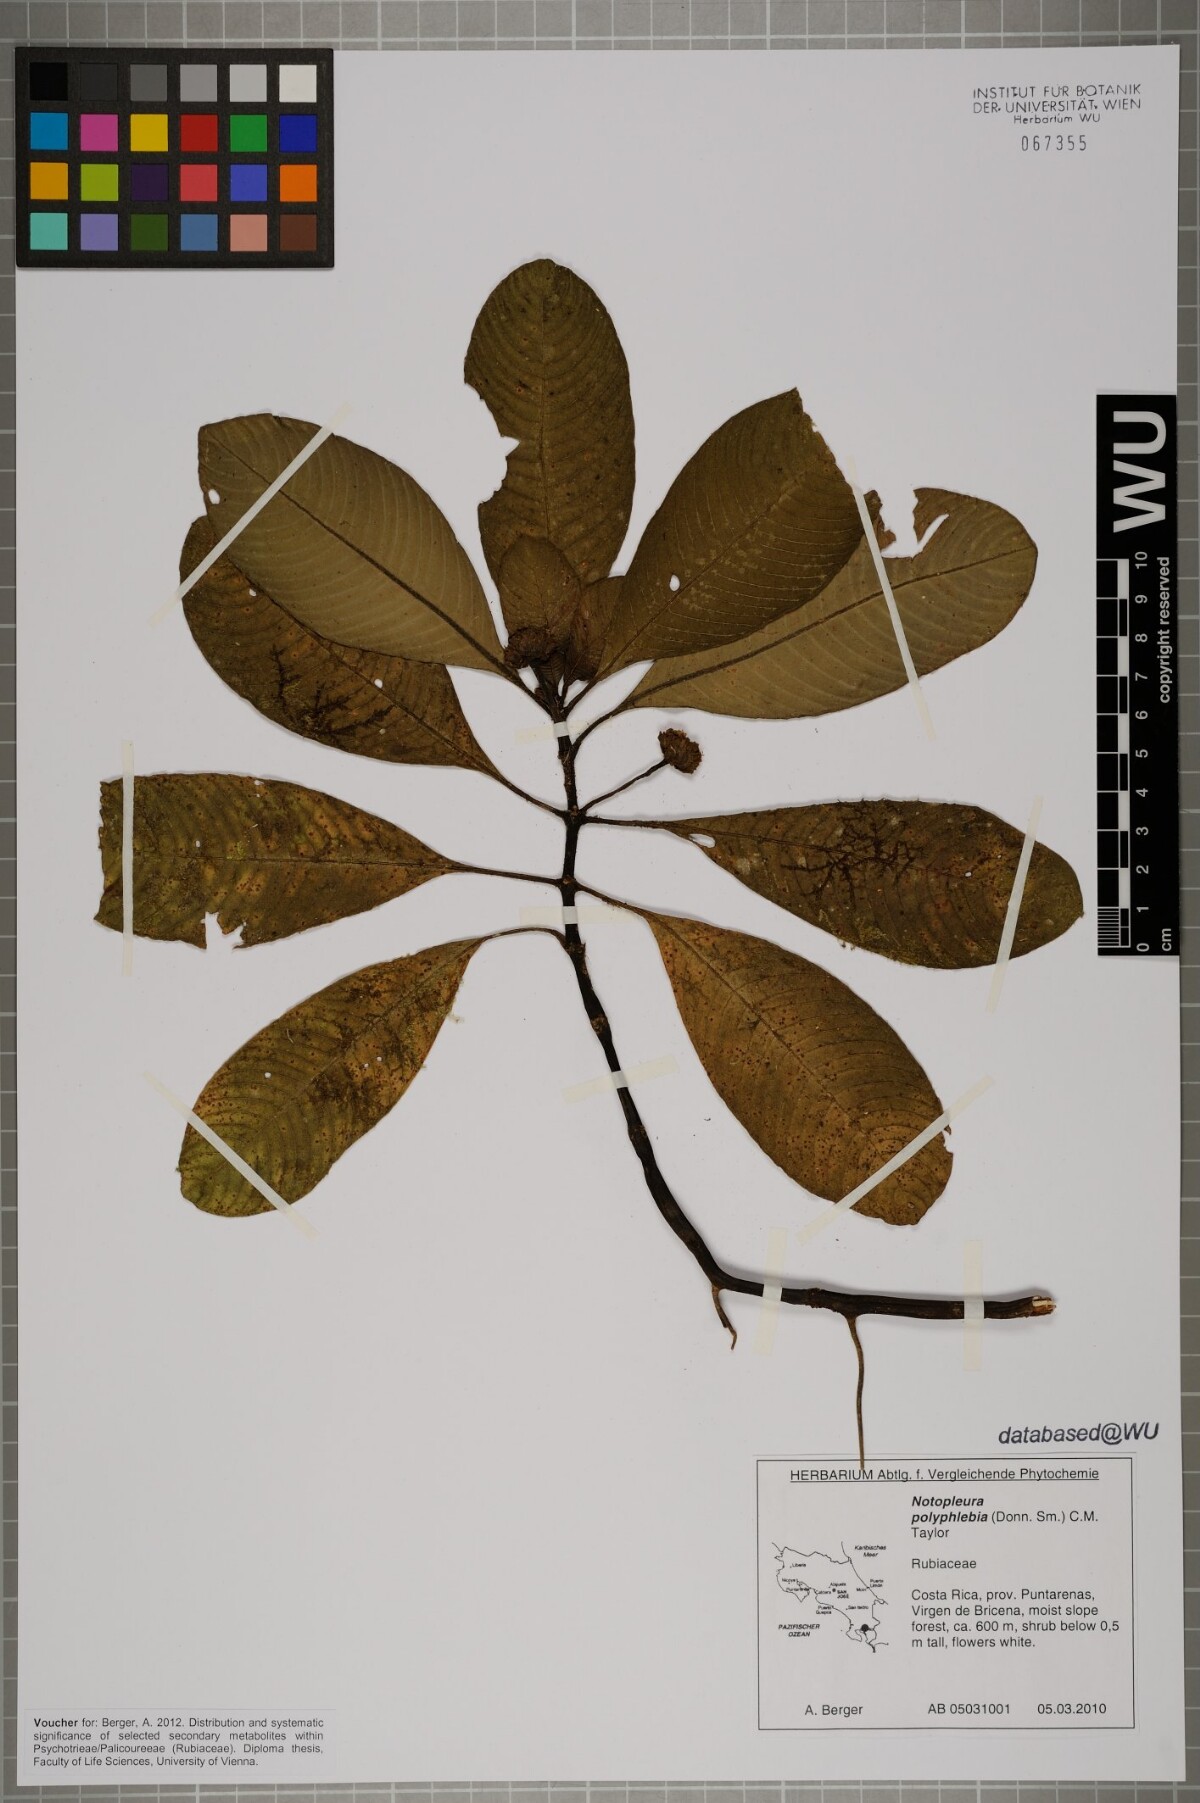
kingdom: Plantae
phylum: Tracheophyta
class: Magnoliopsida
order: Gentianales
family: Rubiaceae
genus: Notopleura
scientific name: Notopleura polyphlebia
